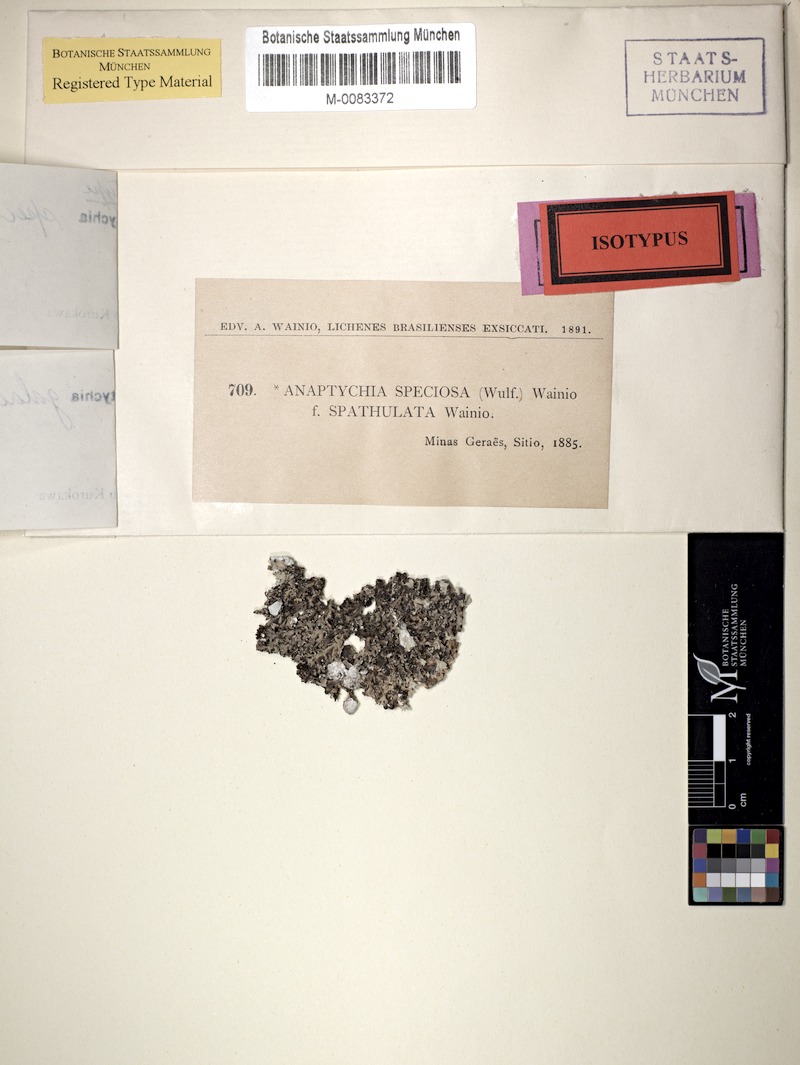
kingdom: Fungi
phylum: Ascomycota
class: Lecanoromycetes
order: Caliciales
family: Physciaceae
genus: Heterodermia
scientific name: Heterodermia galactophylla
